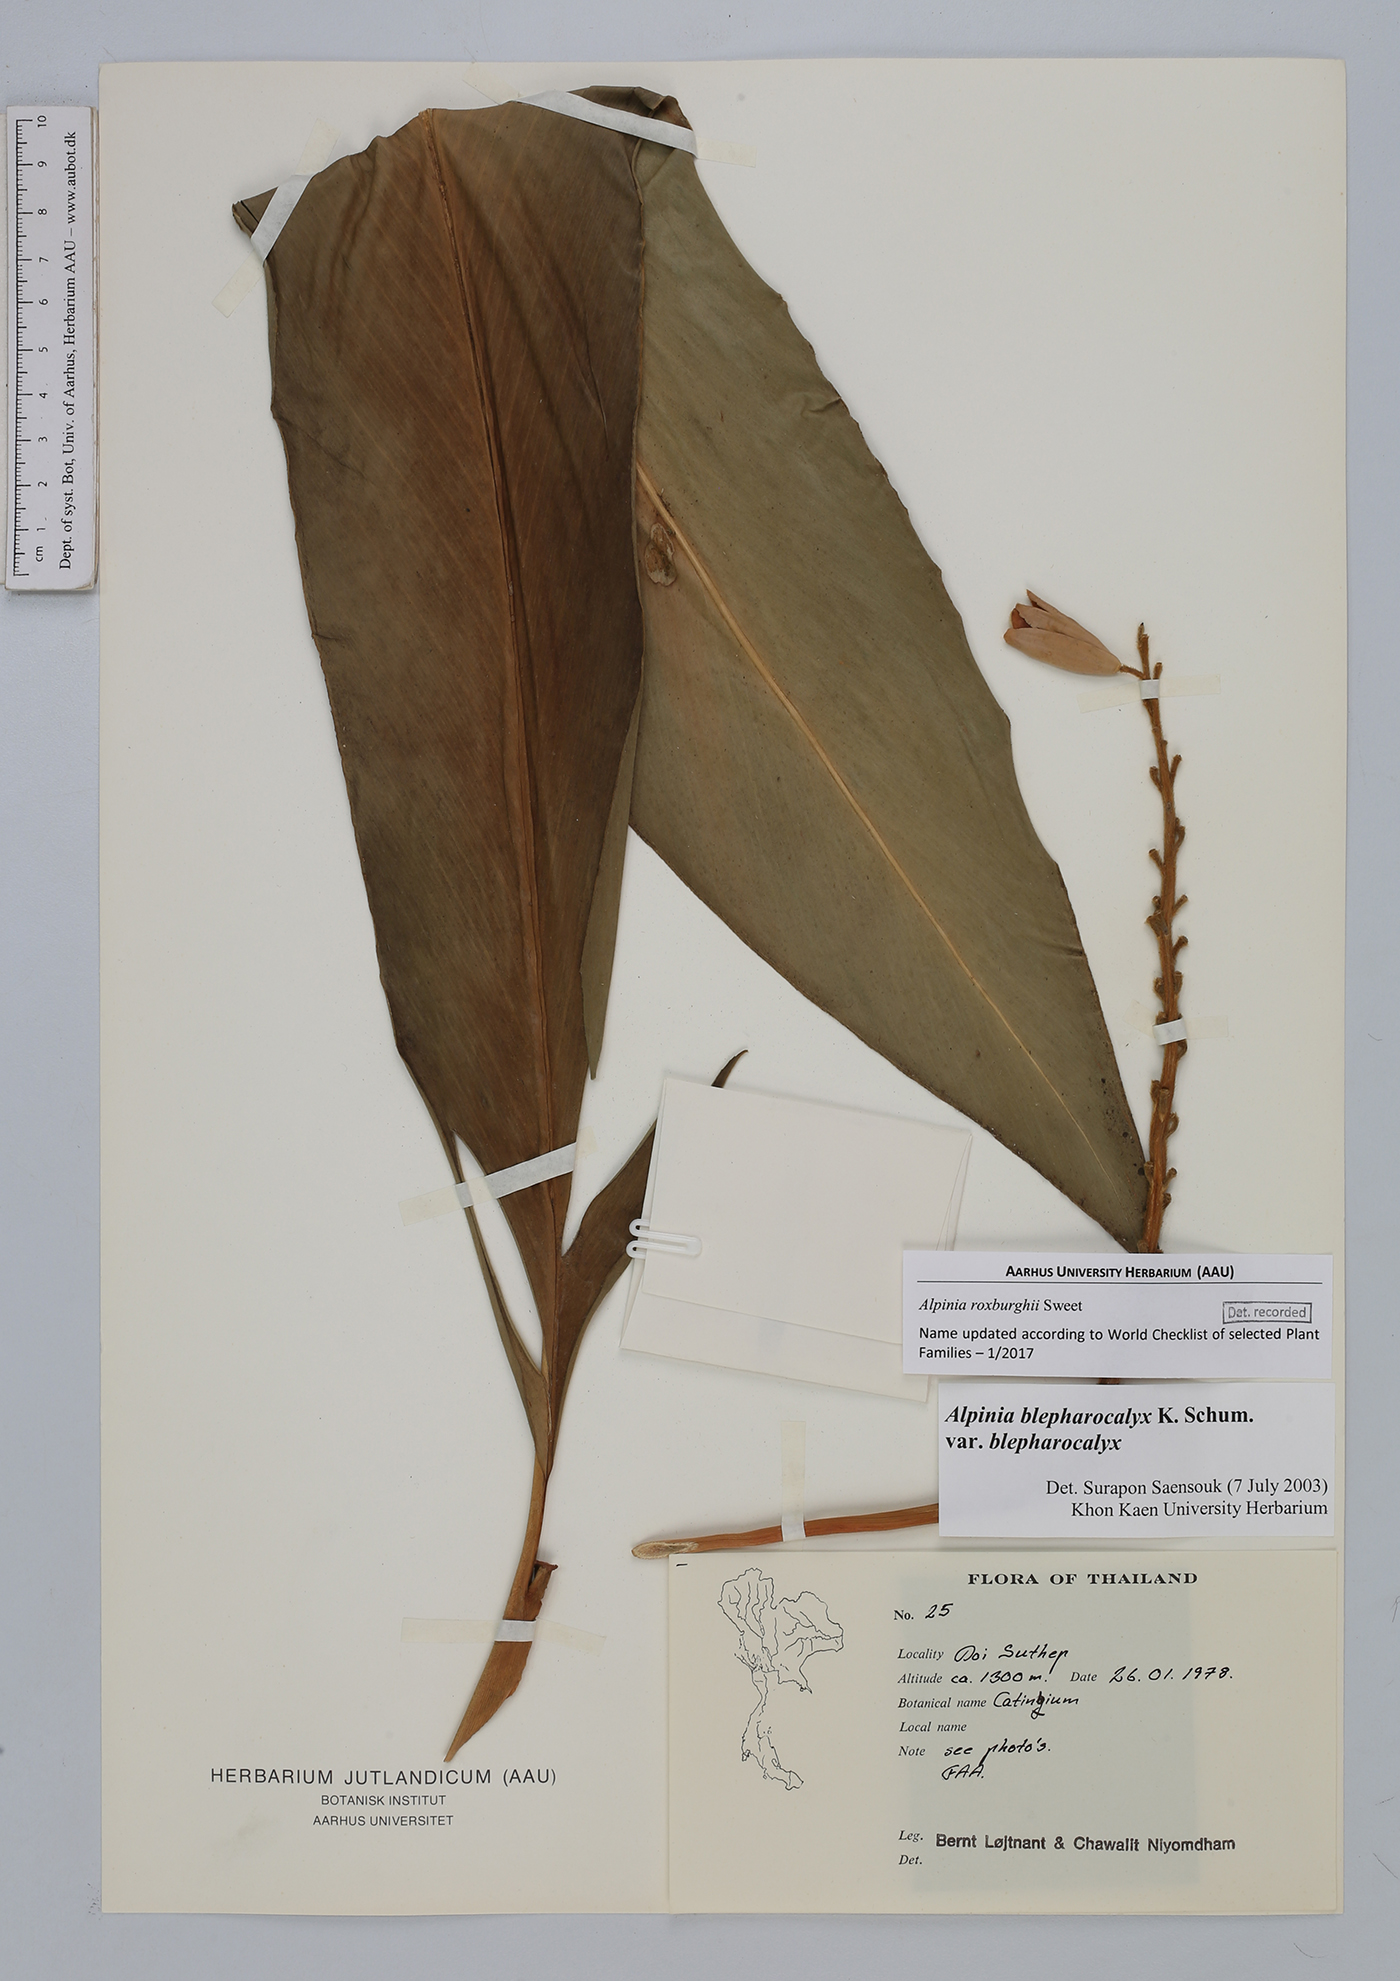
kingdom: Plantae
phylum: Tracheophyta
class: Liliopsida
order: Zingiberales
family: Zingiberaceae
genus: Alpinia
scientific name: Alpinia roxburghii
